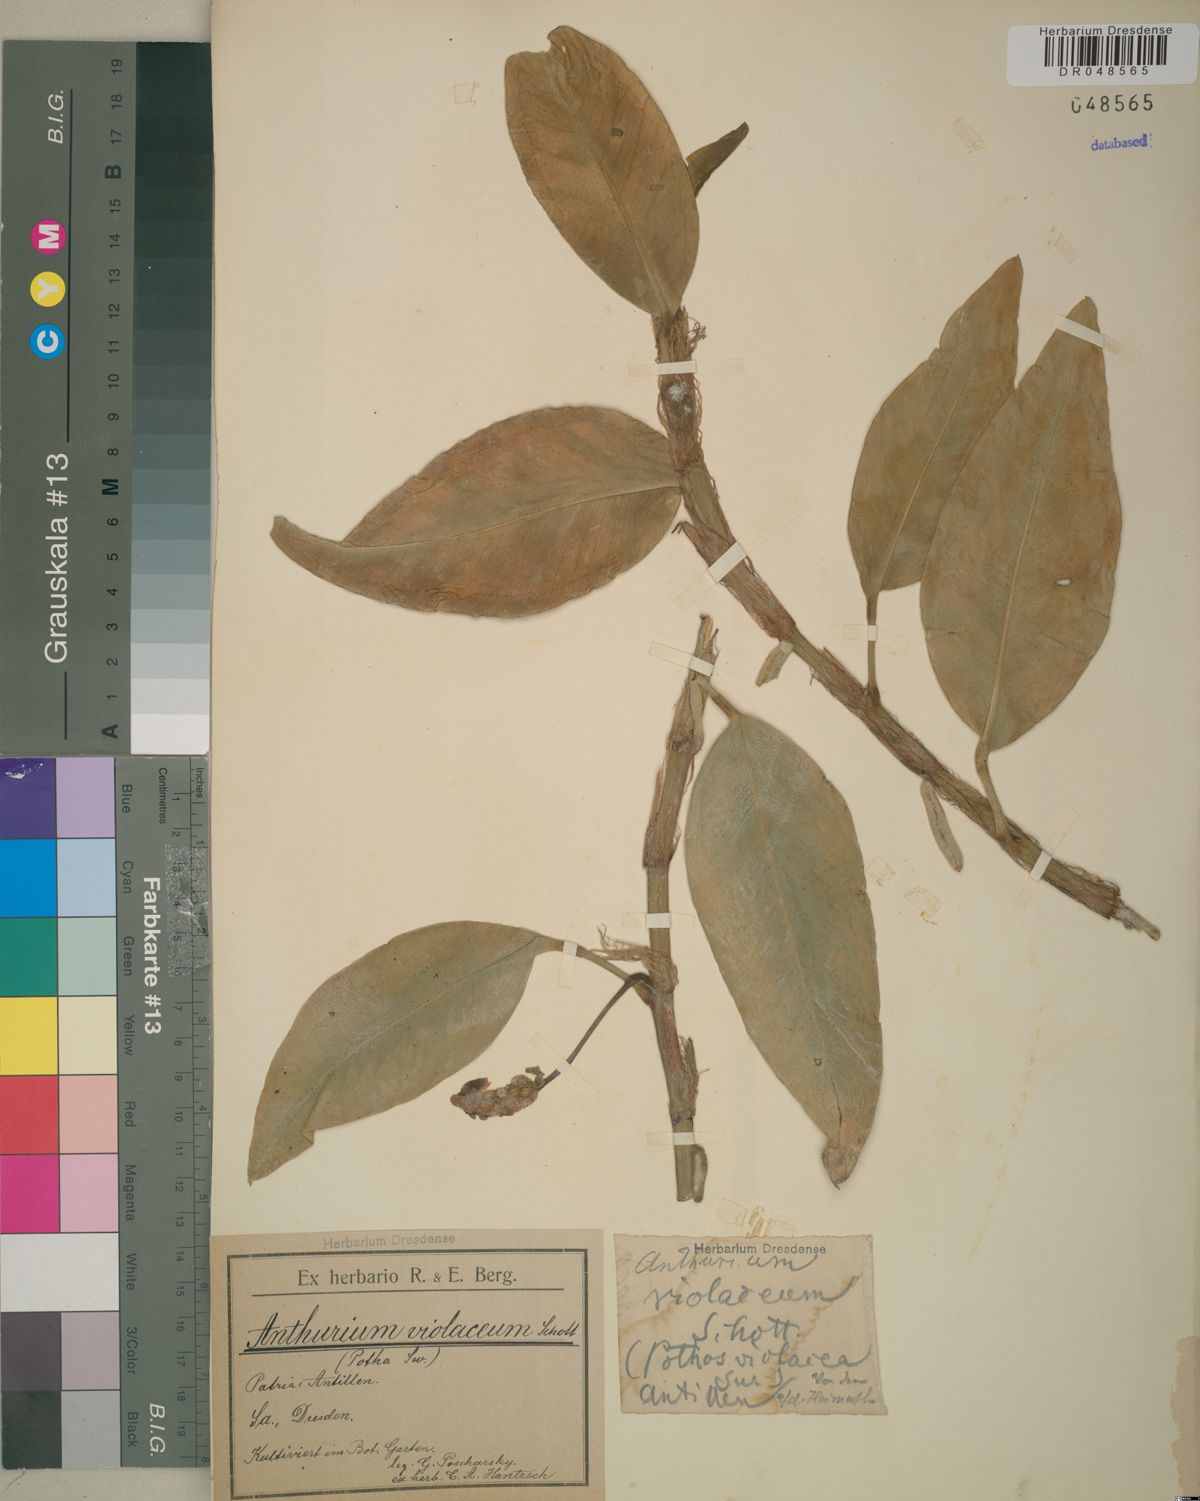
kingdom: Plantae
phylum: Tracheophyta
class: Liliopsida
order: Alismatales
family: Araceae
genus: Anthurium
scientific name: Anthurium scandens
